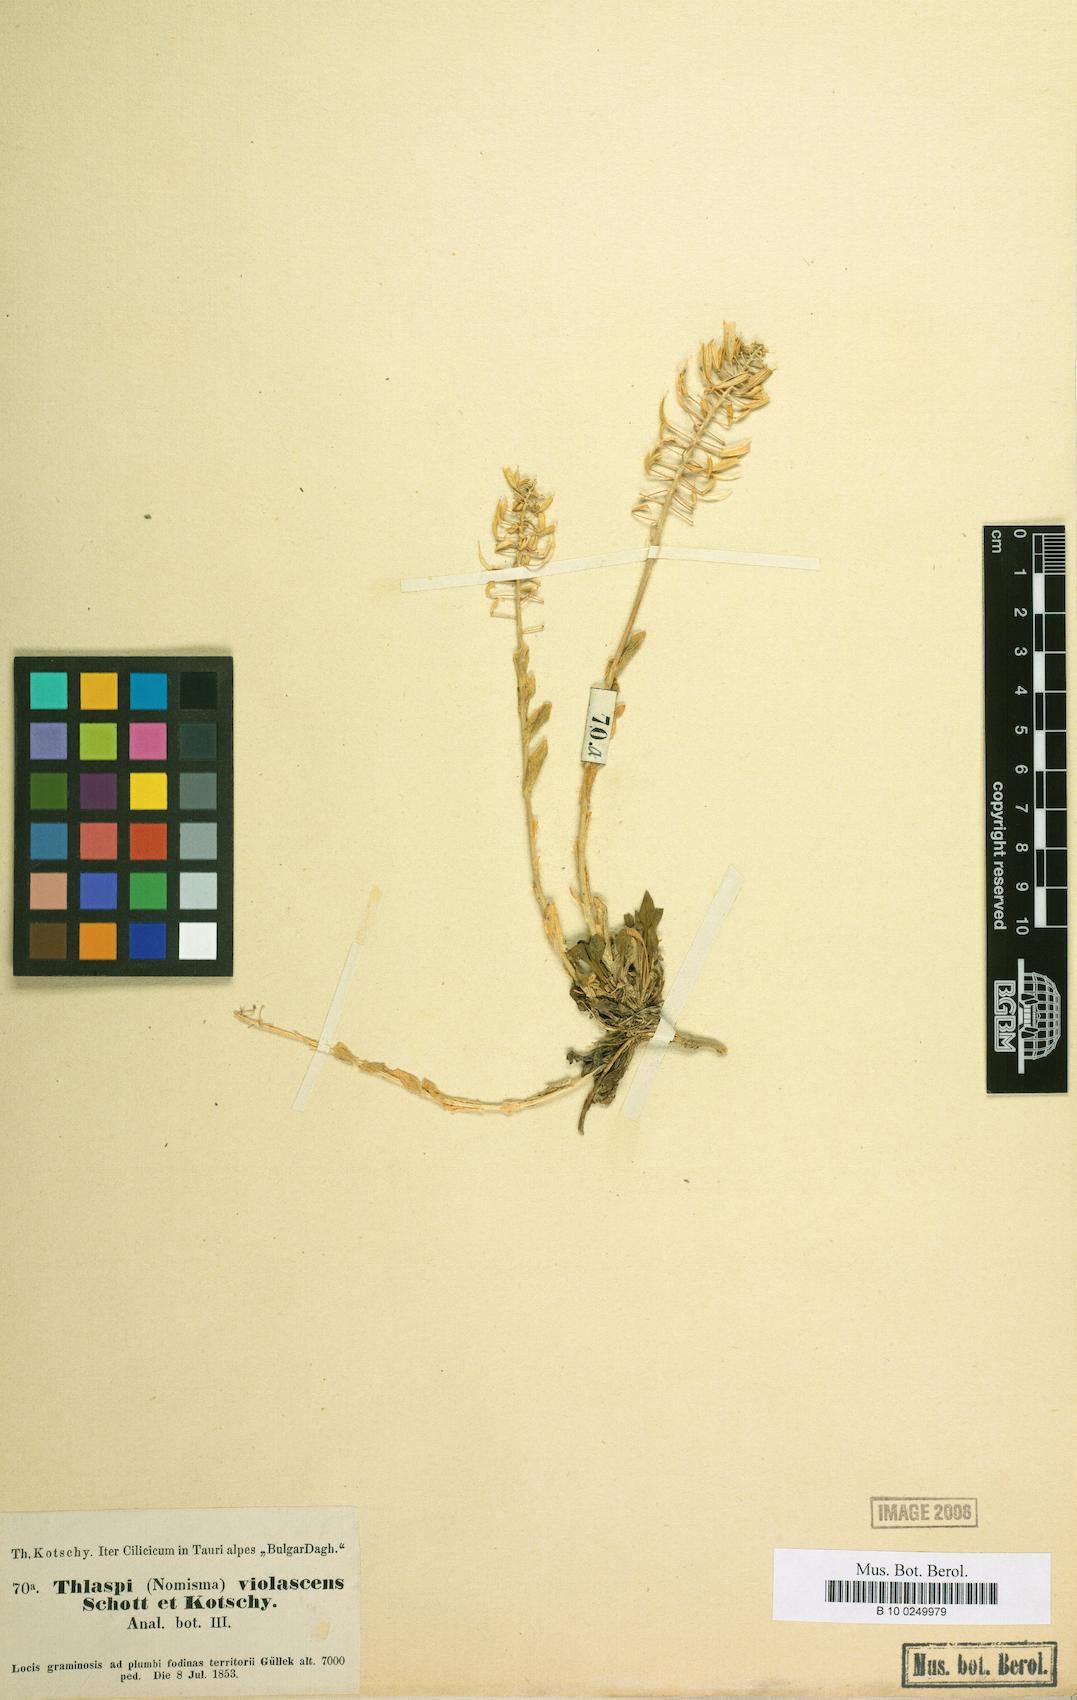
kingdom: Plantae
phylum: Tracheophyta
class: Magnoliopsida
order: Brassicales
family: Brassicaceae
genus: Noccaea
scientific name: Noccaea violascens
